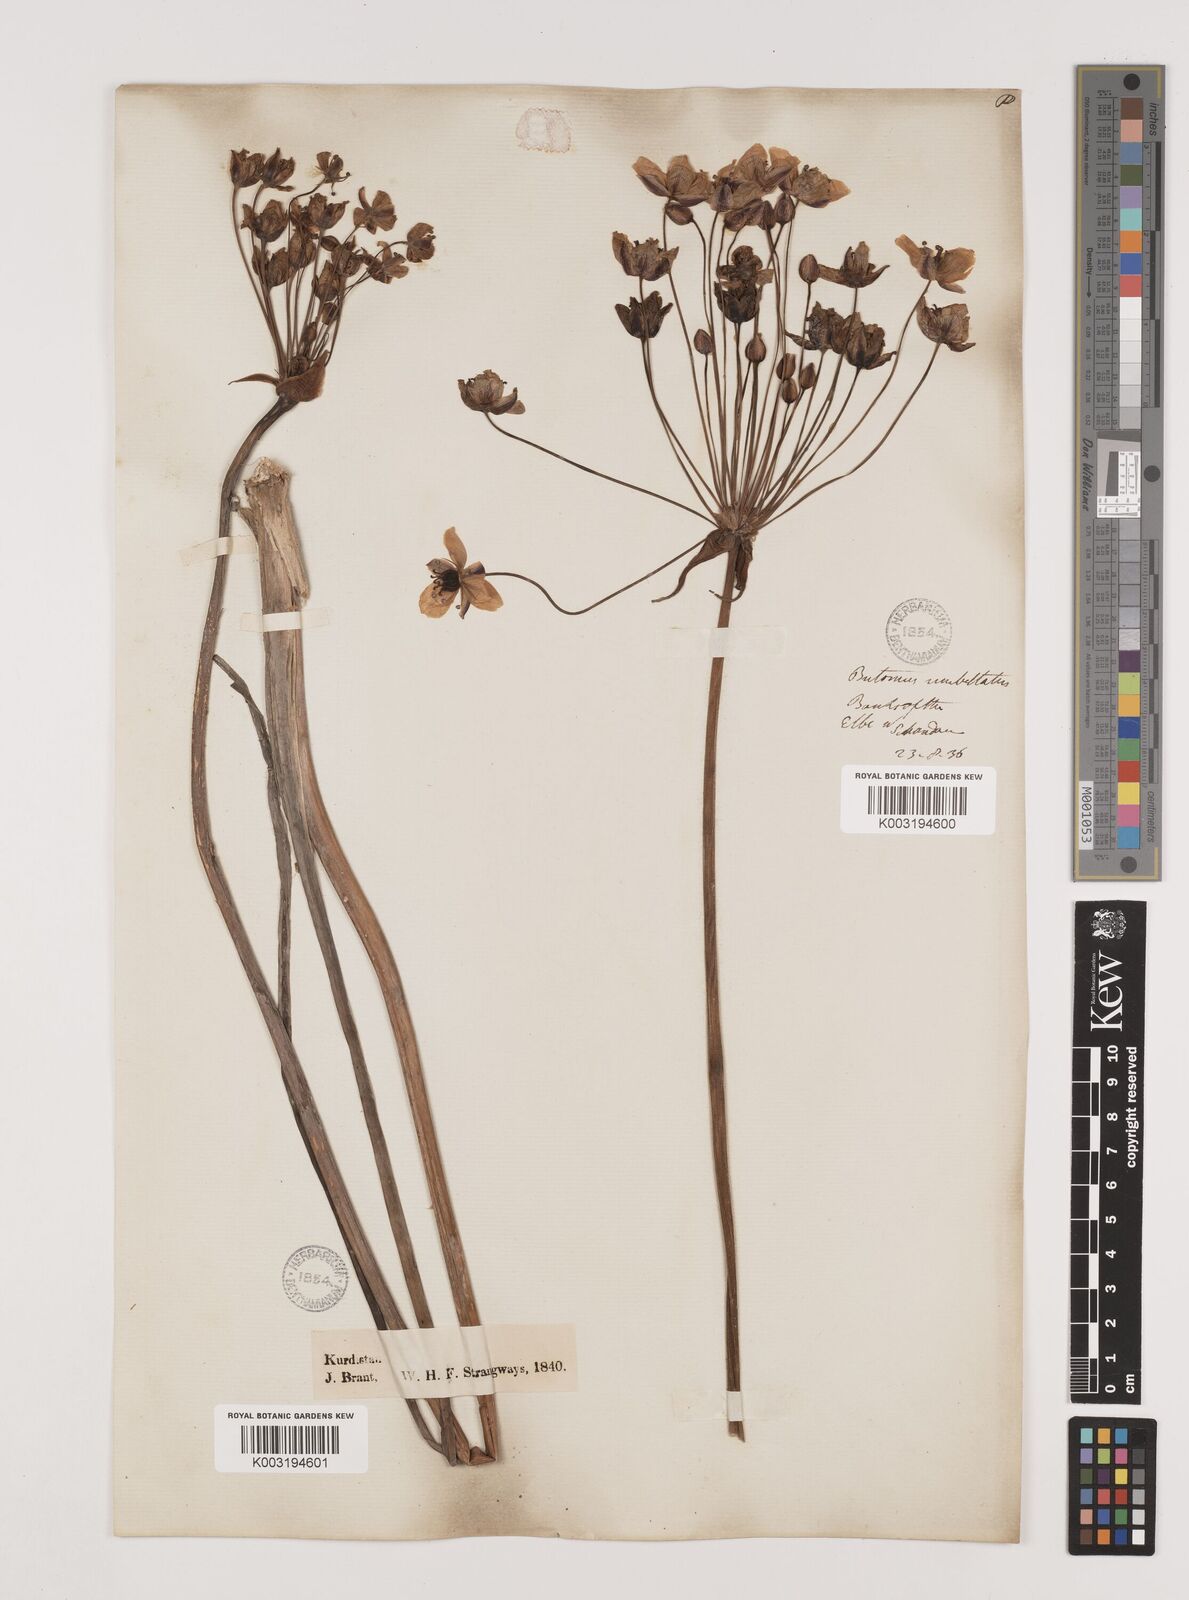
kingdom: Plantae
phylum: Tracheophyta
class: Liliopsida
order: Alismatales
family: Butomaceae
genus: Butomus
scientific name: Butomus umbellatus
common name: Flowering-rush
